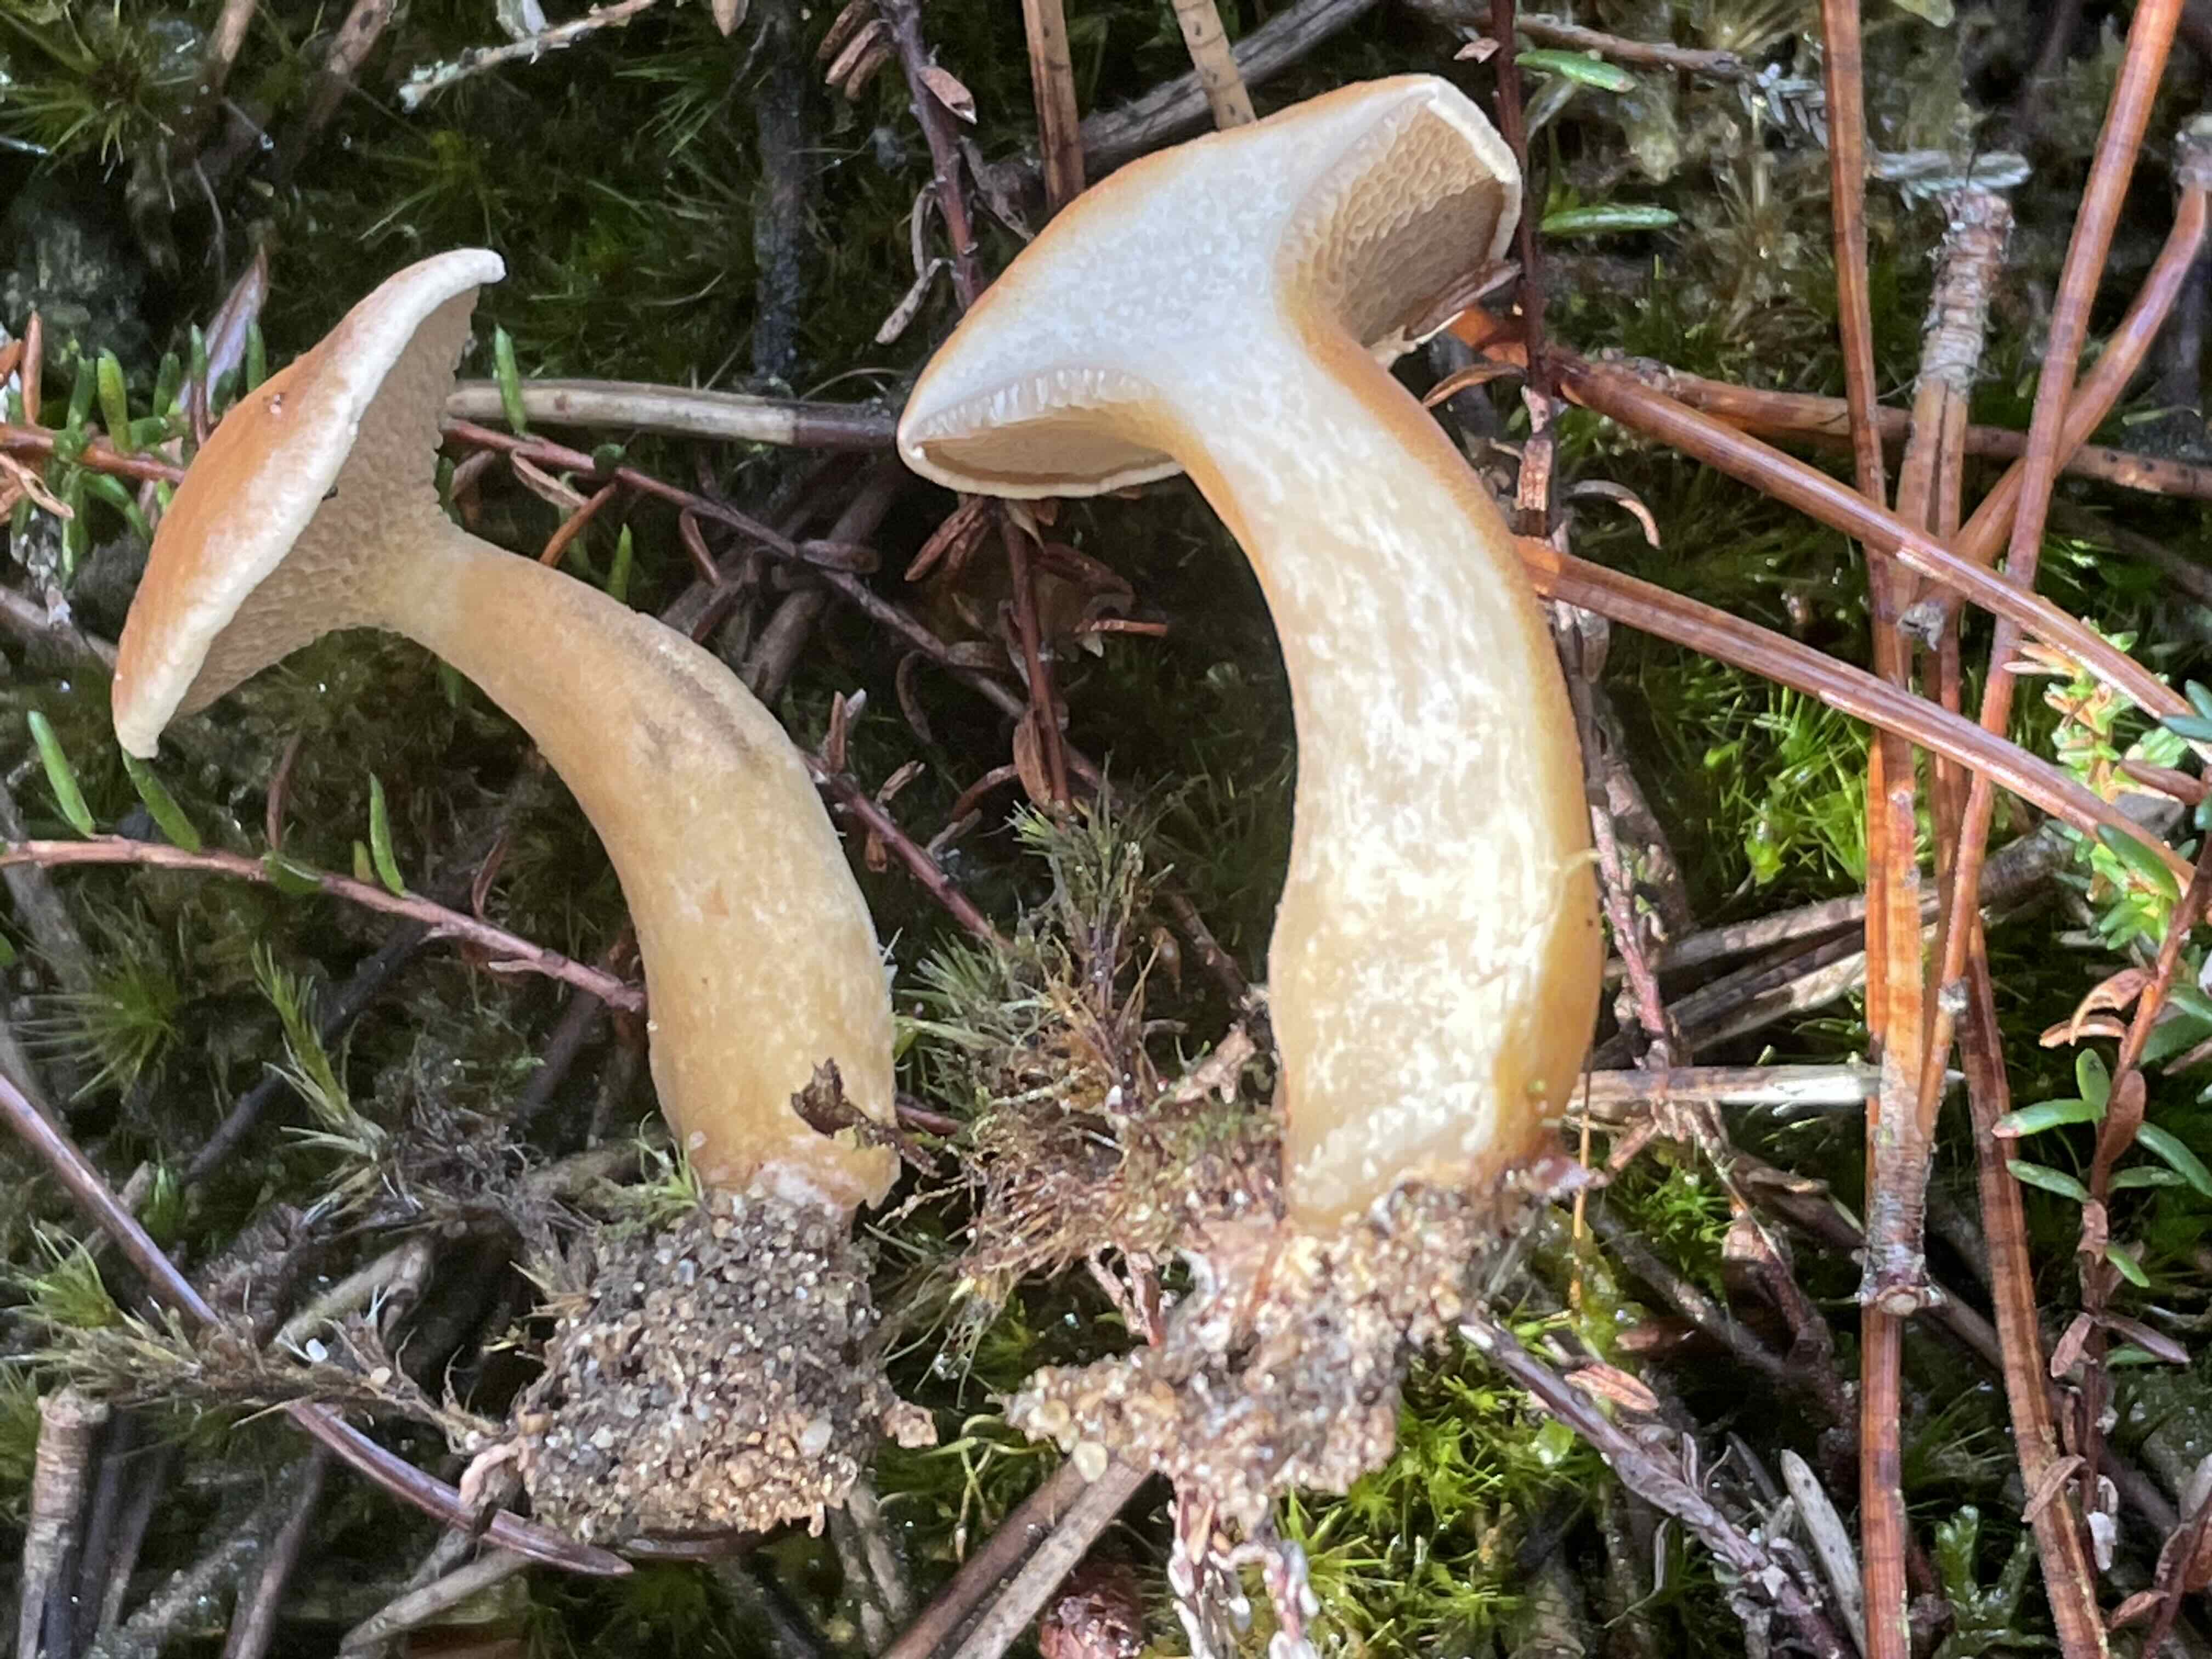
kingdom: Fungi
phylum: Basidiomycota
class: Agaricomycetes
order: Boletales
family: Suillaceae
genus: Suillus
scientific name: Suillus bovinus
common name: grovporet slimrørhat
